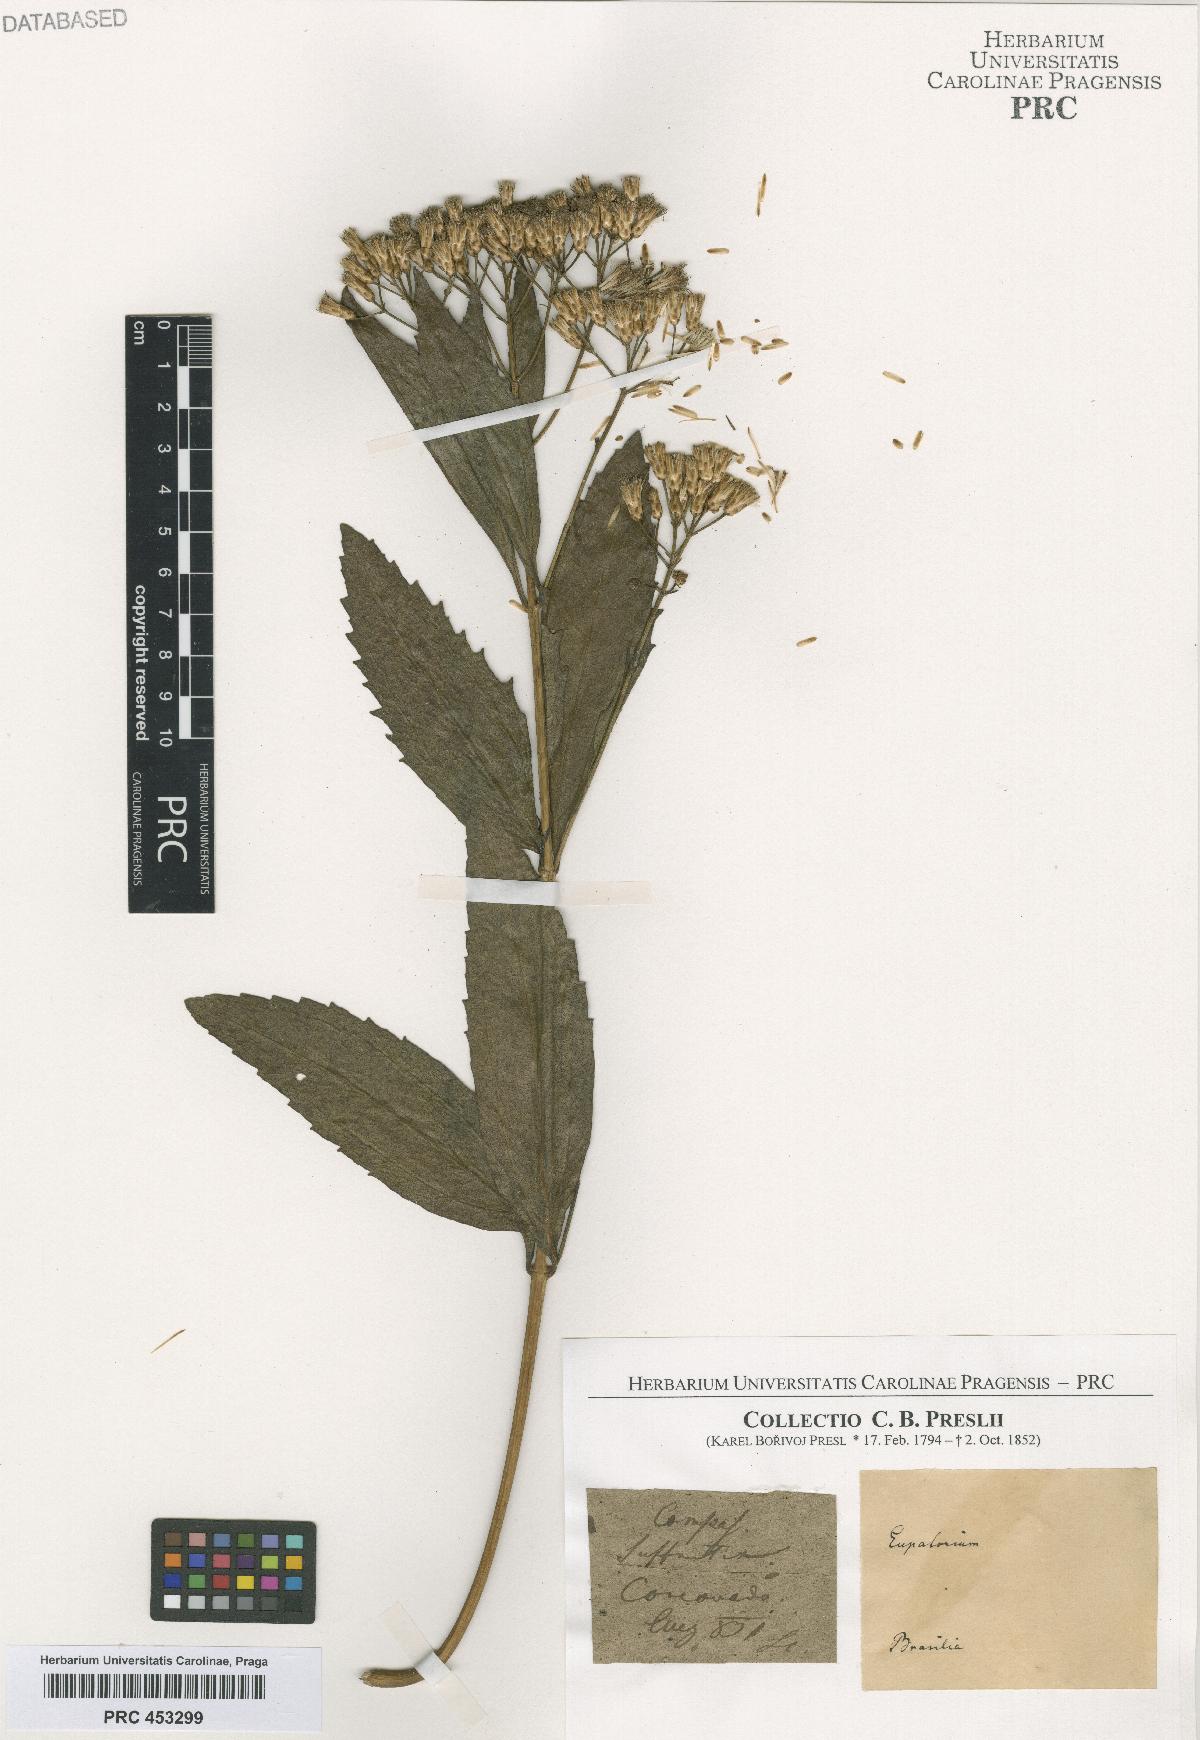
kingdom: Plantae
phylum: Tracheophyta
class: Magnoliopsida
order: Asterales
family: Asteraceae
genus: Eupatorium
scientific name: Eupatorium
